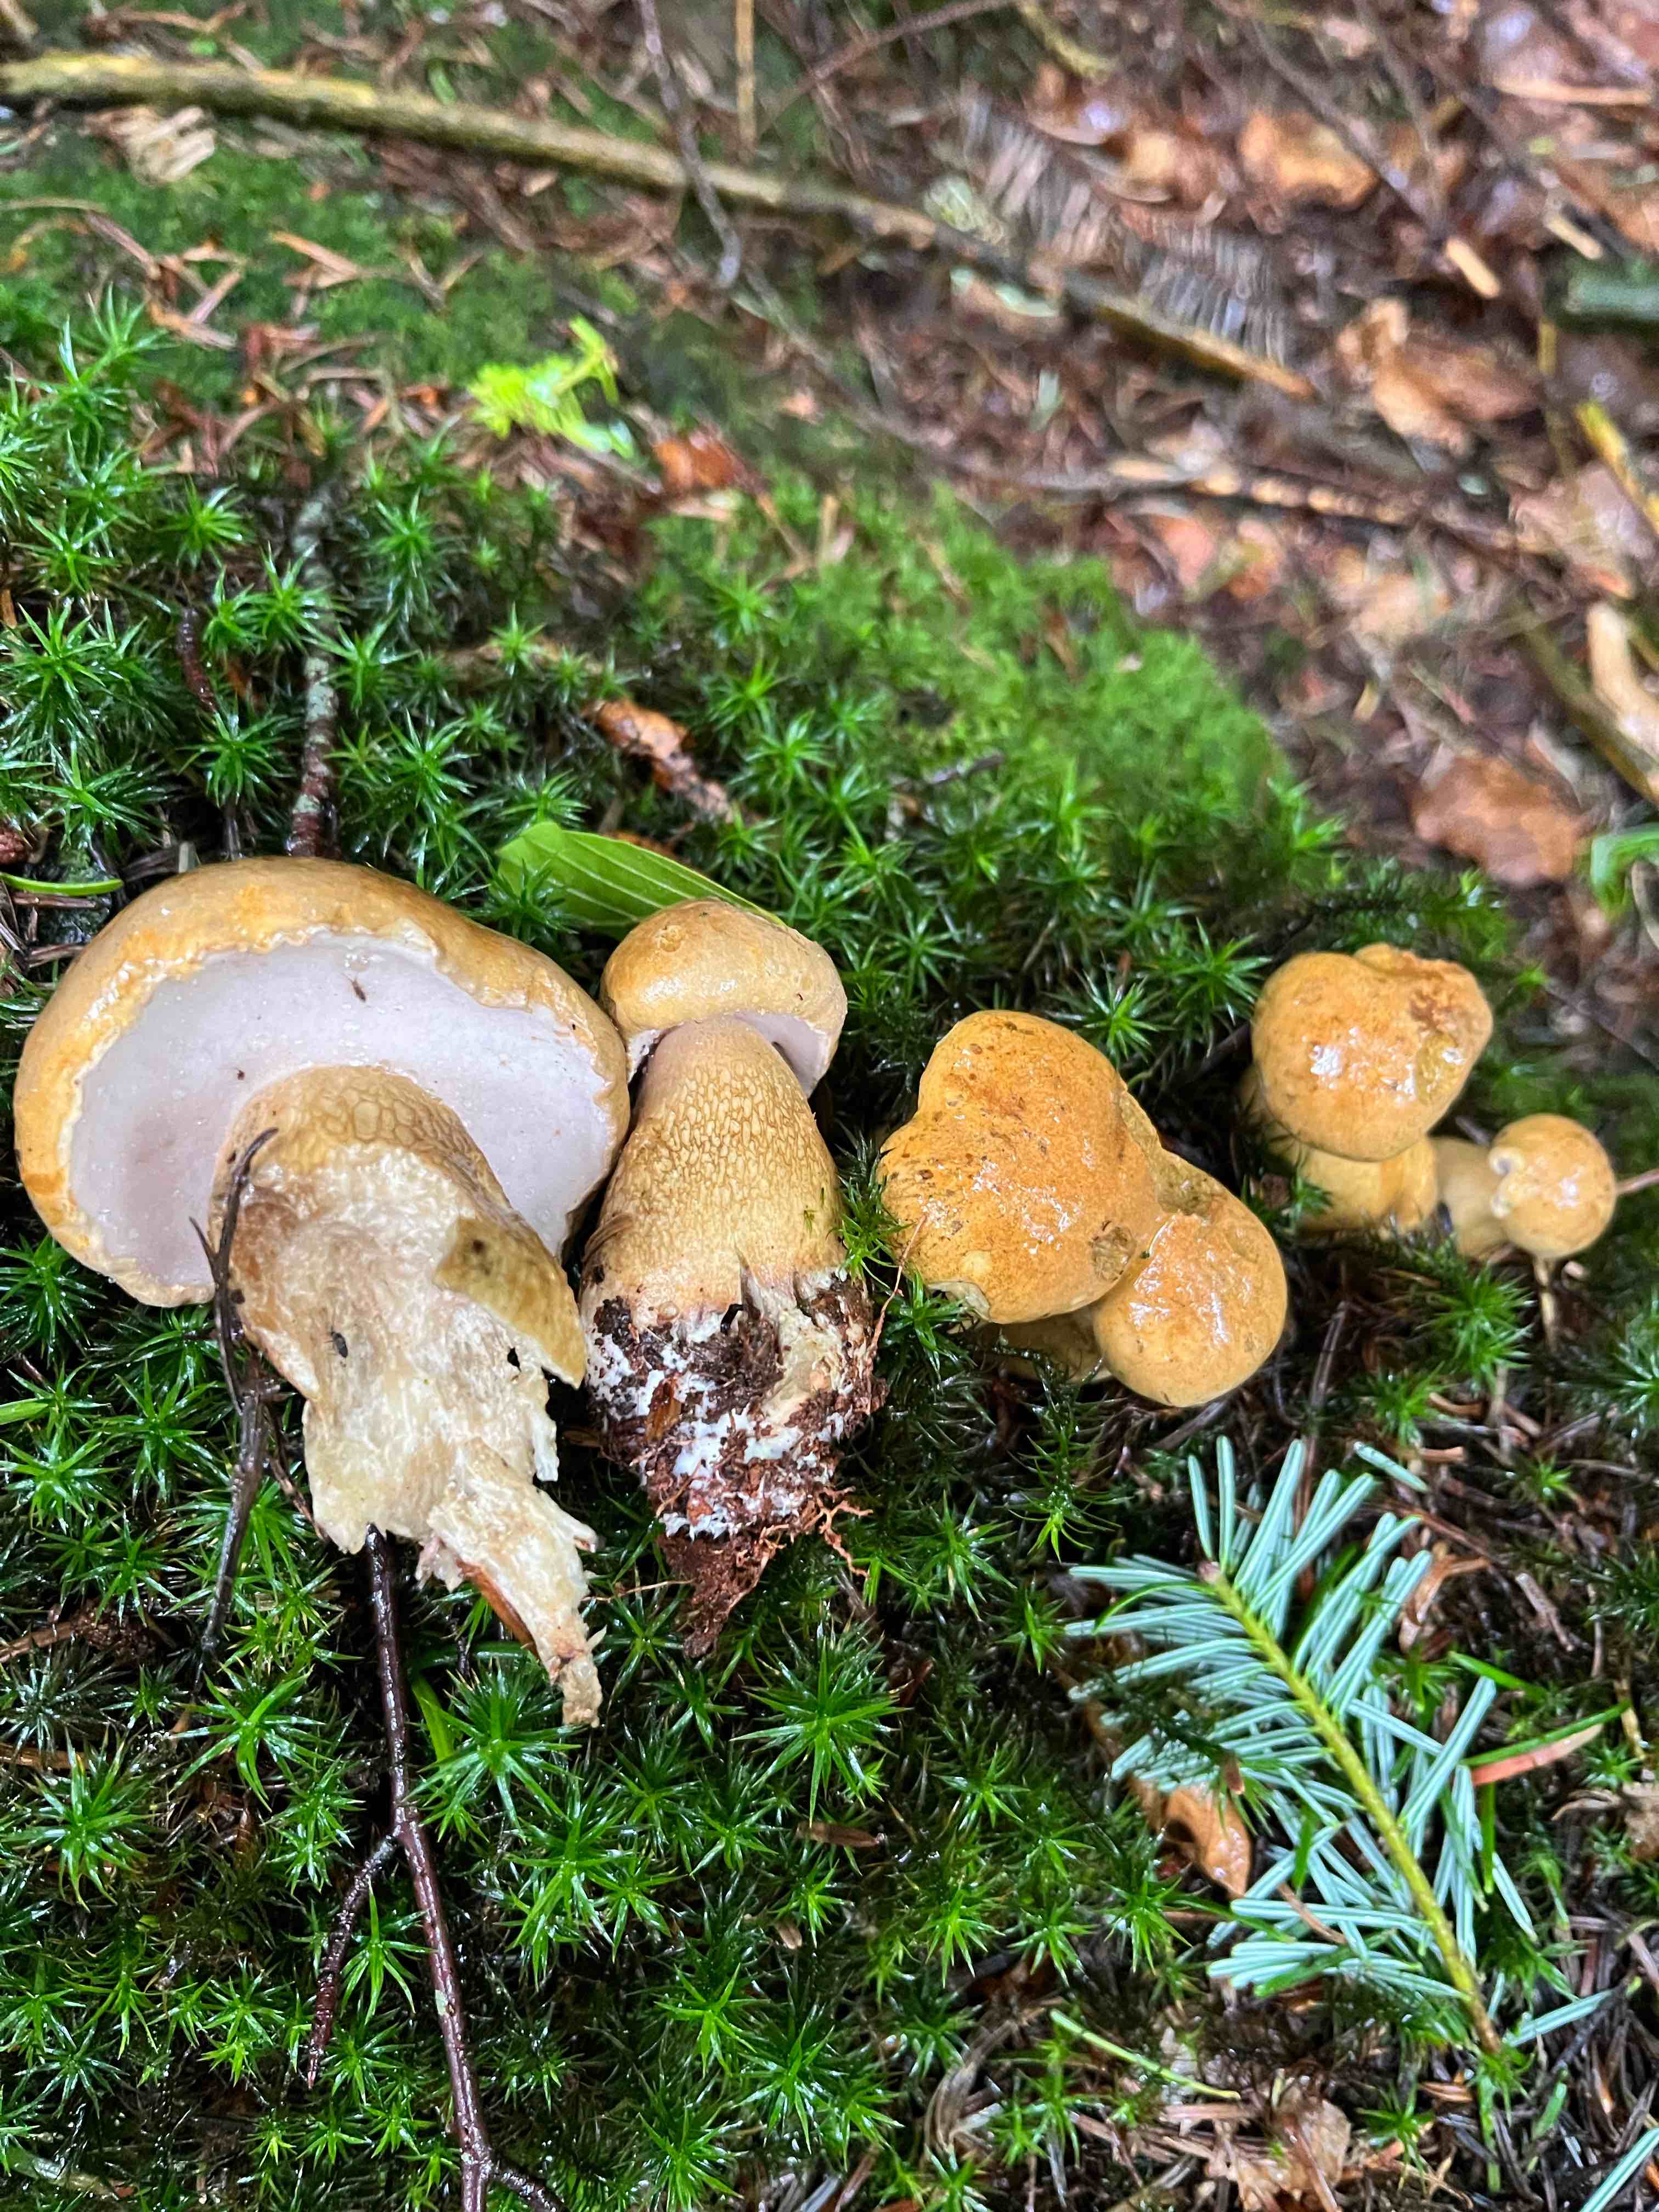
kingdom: Fungi
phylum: Basidiomycota
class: Agaricomycetes
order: Boletales
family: Boletaceae
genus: Tylopilus
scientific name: Tylopilus felleus
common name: galderørhat
